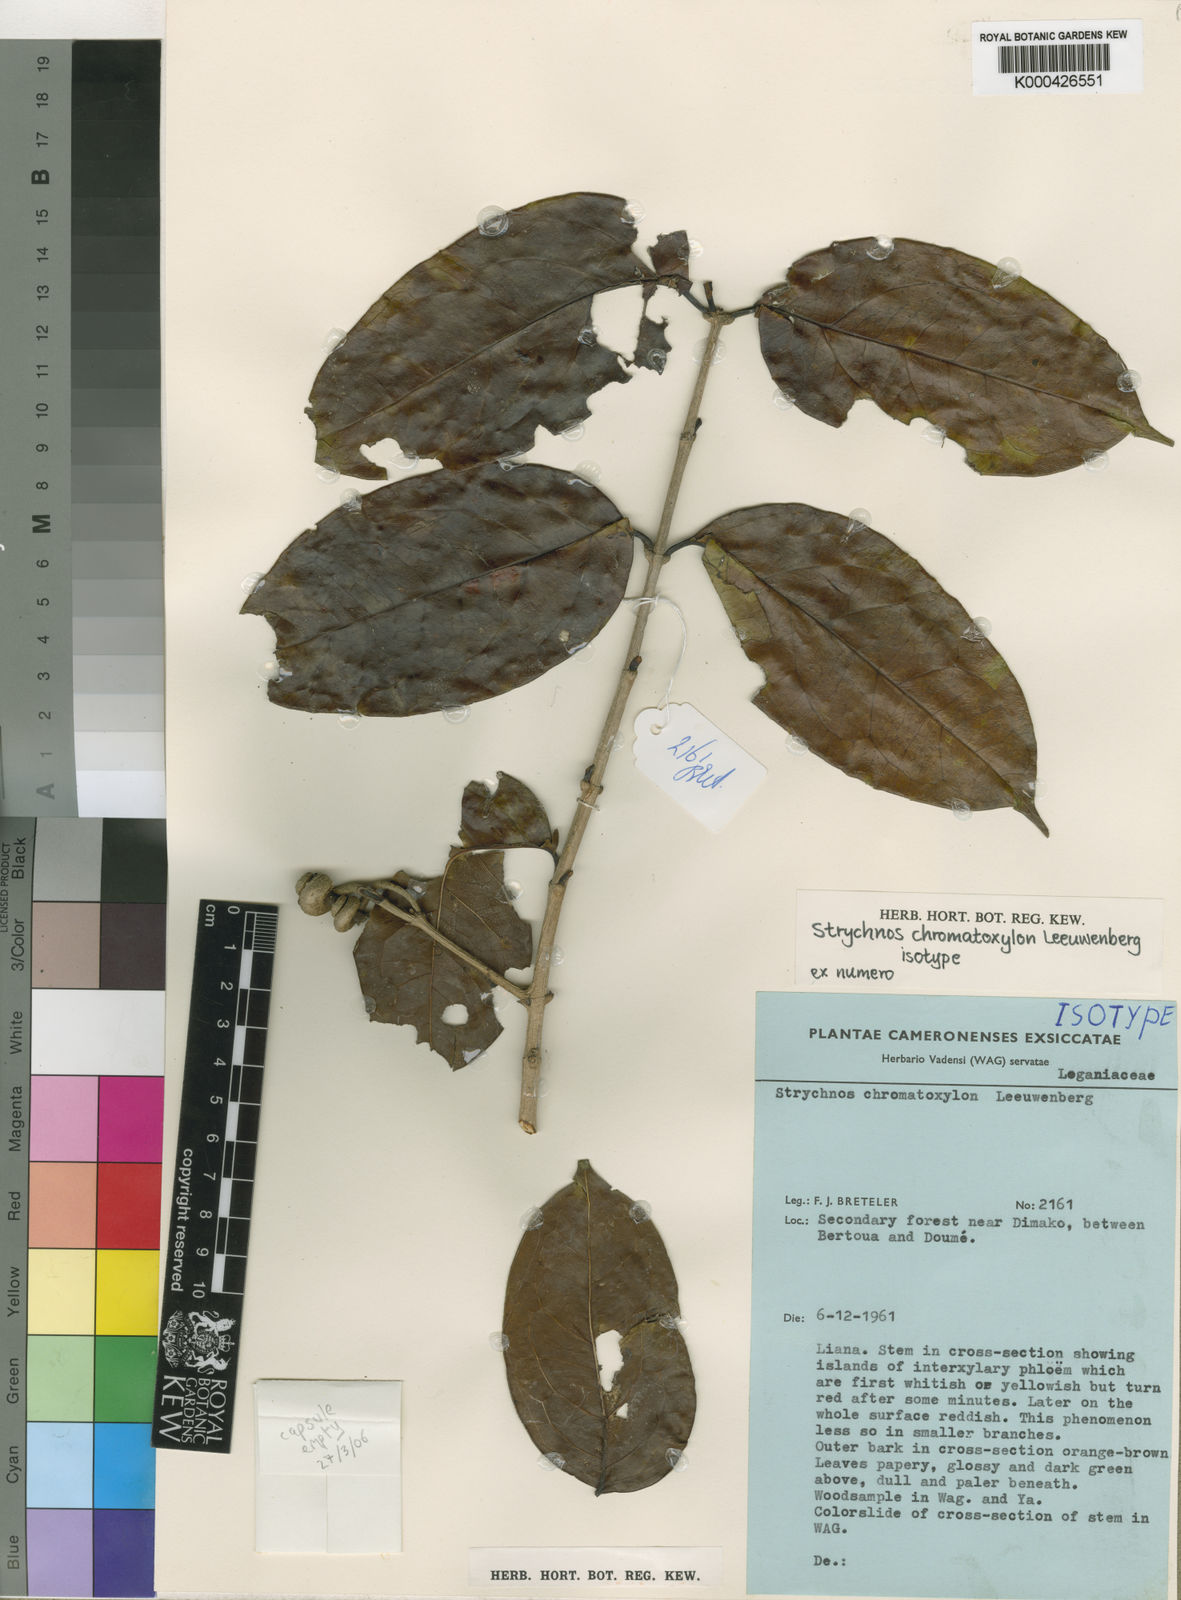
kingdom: Plantae
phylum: Tracheophyta
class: Magnoliopsida
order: Gentianales
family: Loganiaceae
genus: Strychnos
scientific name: Strychnos chromatoxylon
